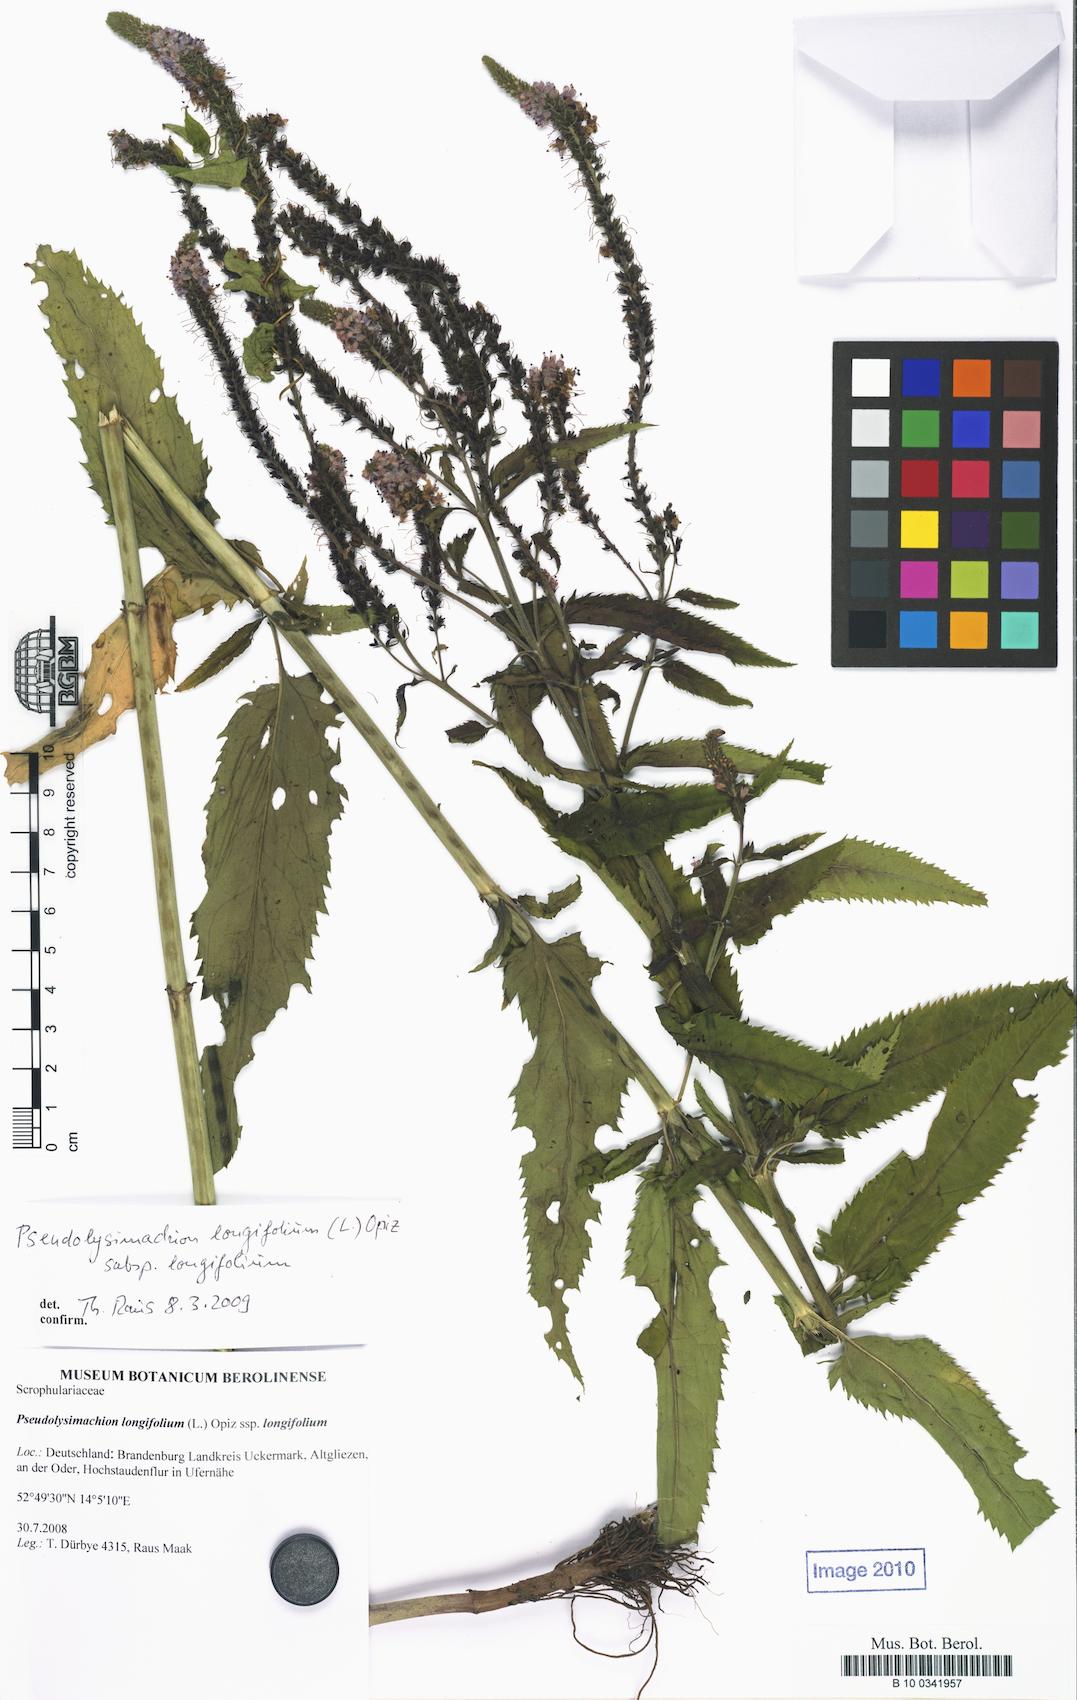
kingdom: Plantae
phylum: Tracheophyta
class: Magnoliopsida
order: Lamiales
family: Plantaginaceae
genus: Veronica
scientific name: Veronica longifolia
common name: Garden speedwell
